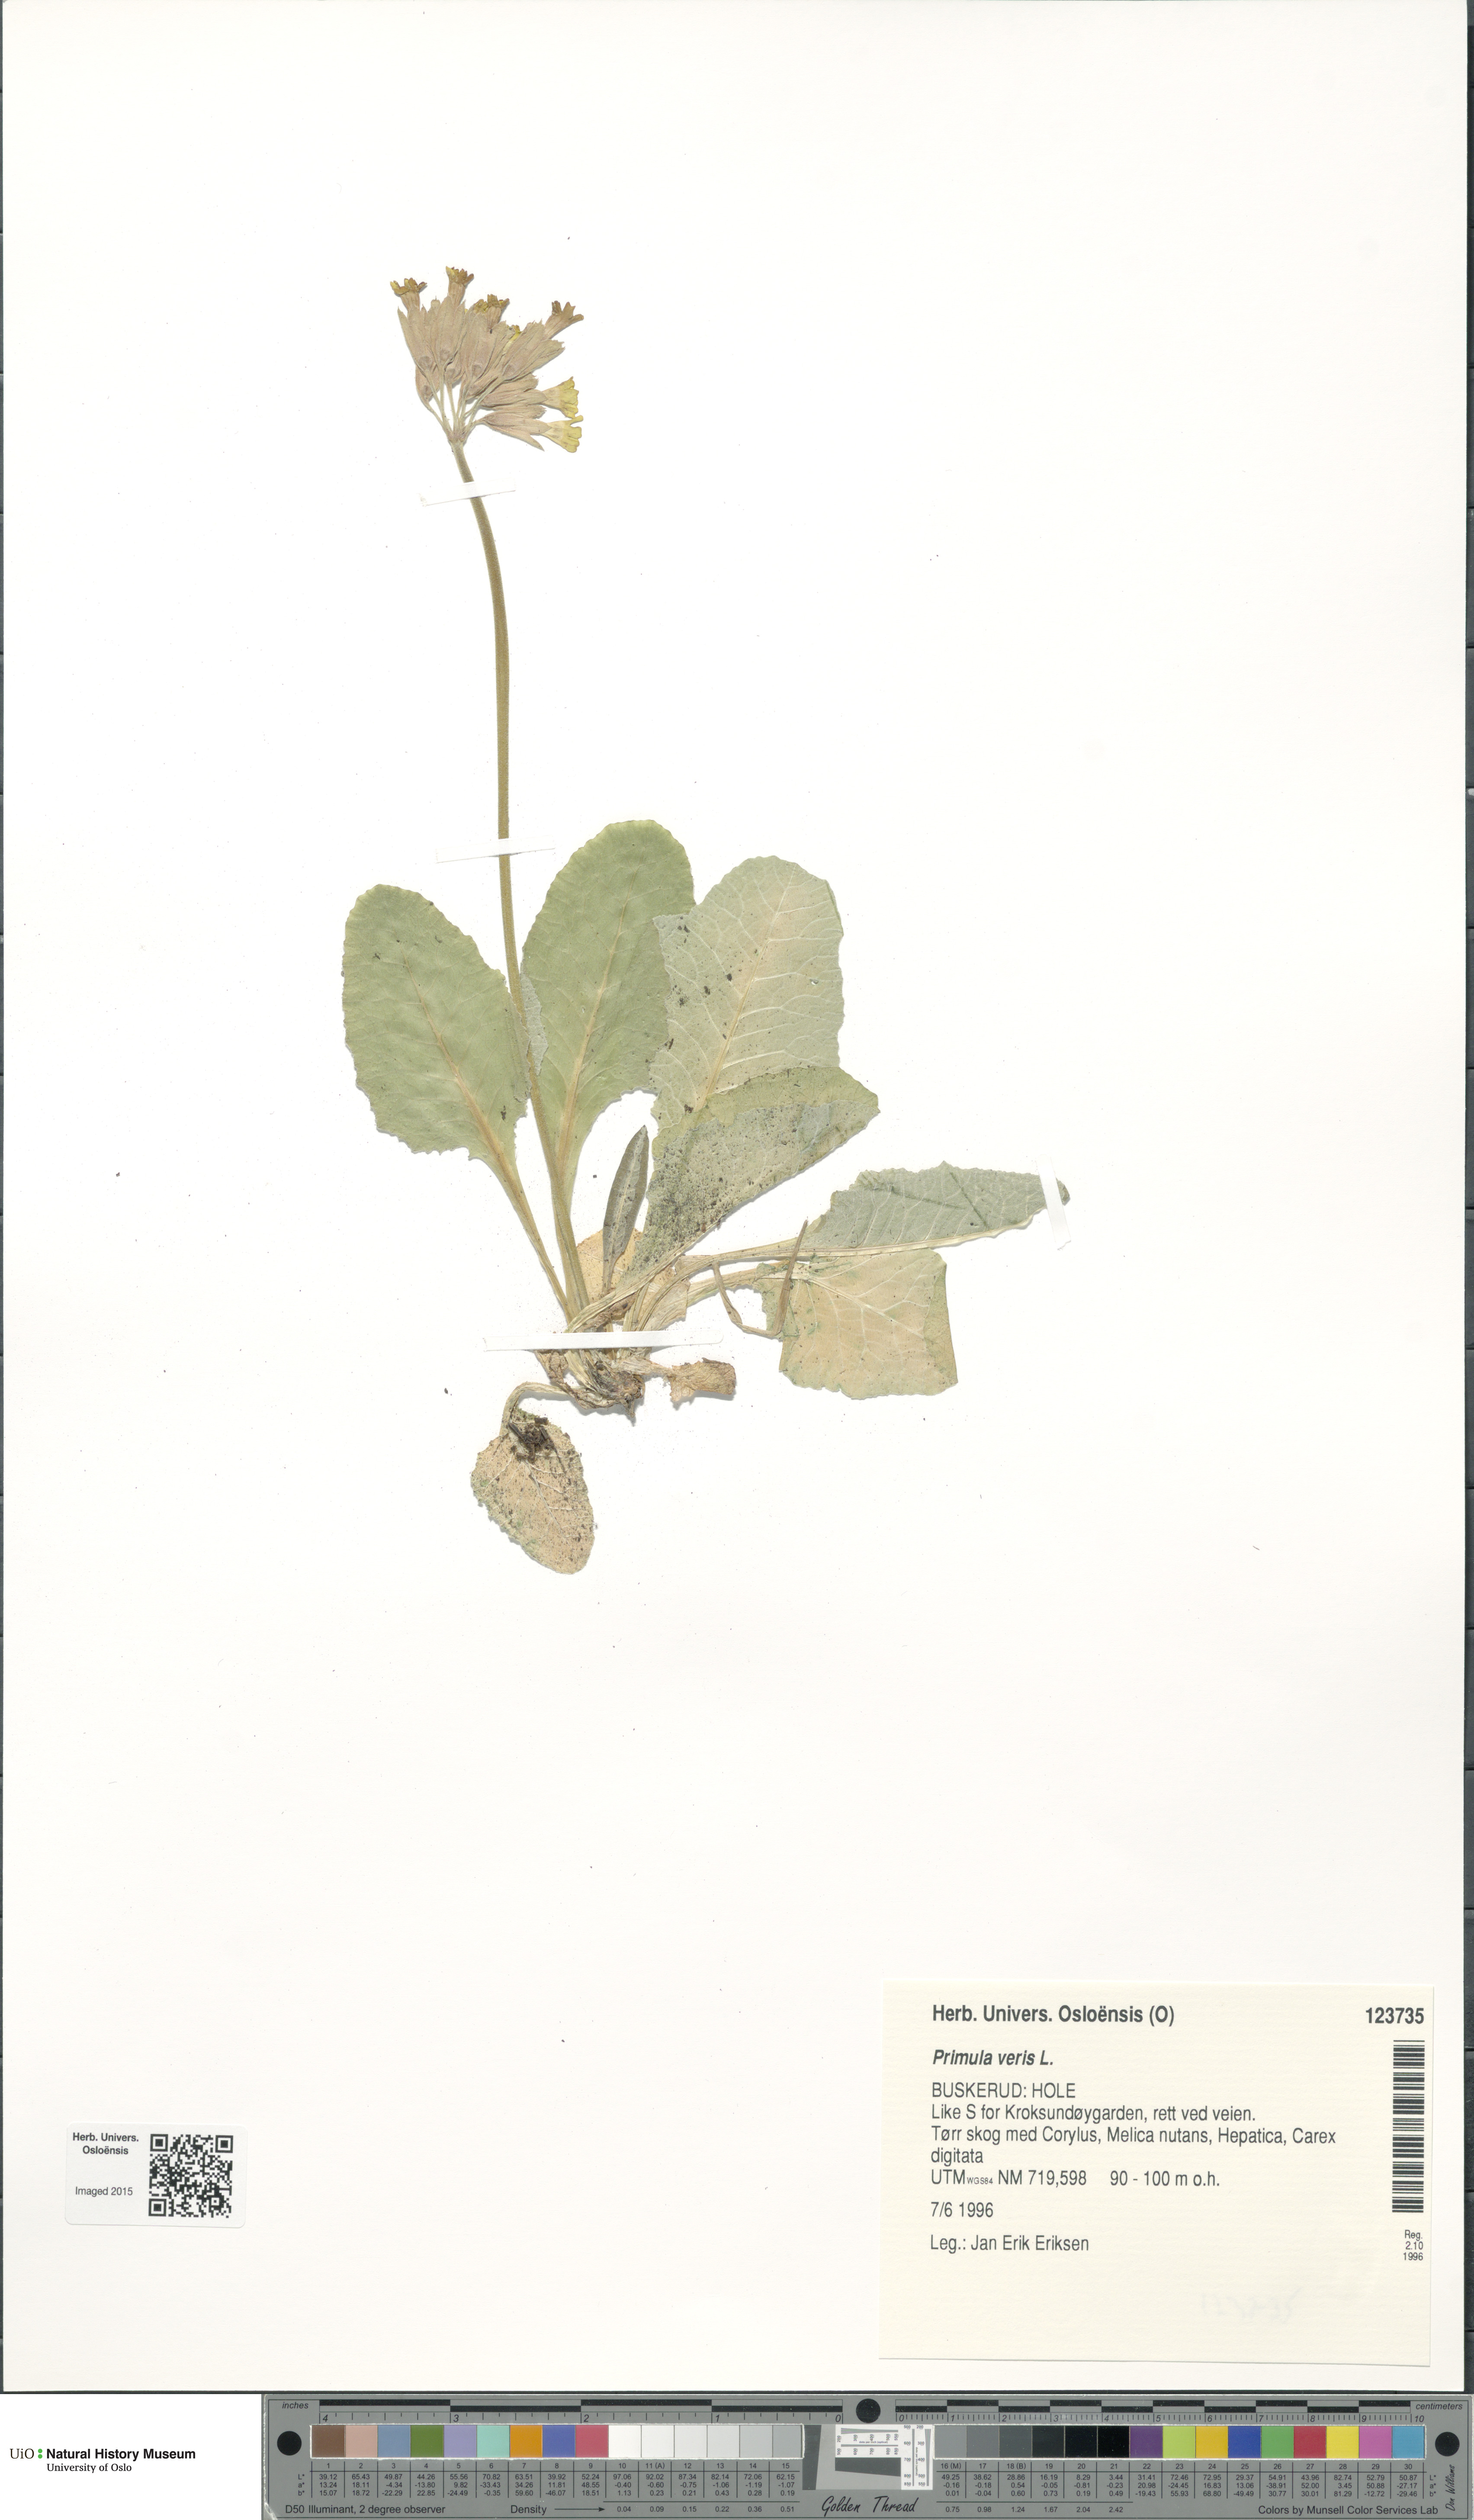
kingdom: Plantae
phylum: Tracheophyta
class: Magnoliopsida
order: Ericales
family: Primulaceae
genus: Primula
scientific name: Primula veris
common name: Cowslip
